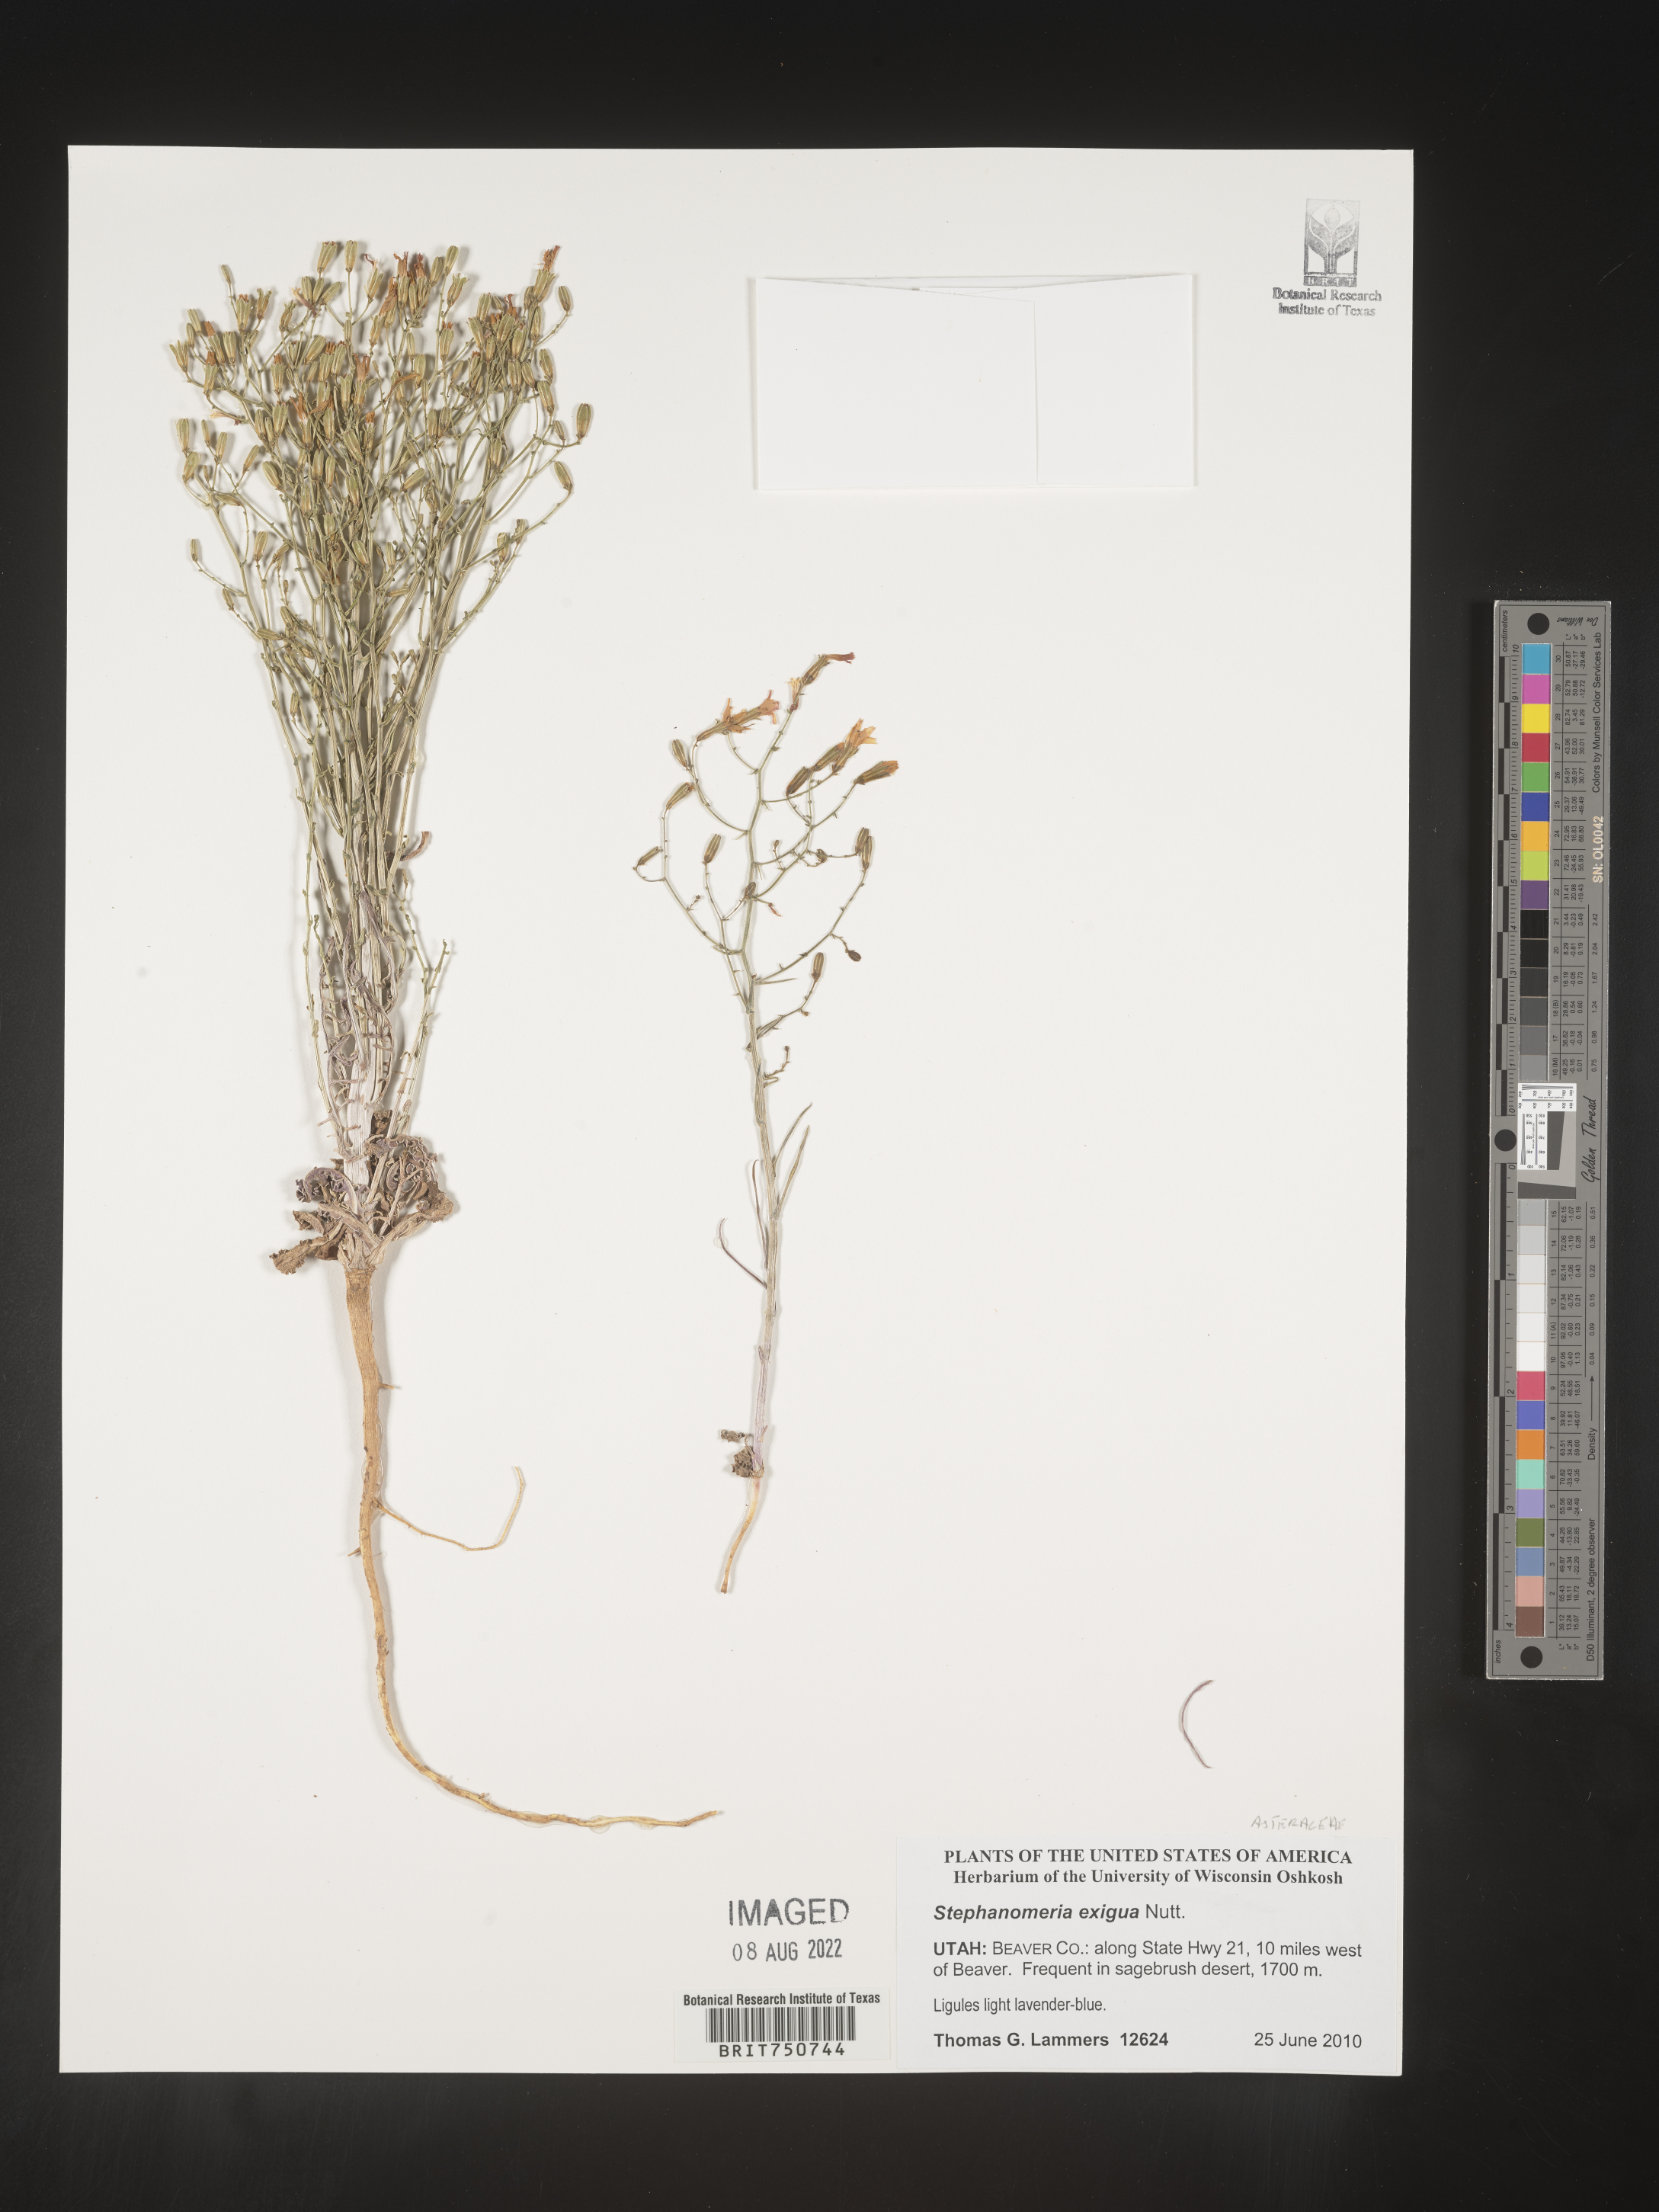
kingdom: Plantae
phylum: Tracheophyta
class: Magnoliopsida
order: Asterales
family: Asteraceae
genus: Stephanomeria
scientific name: Stephanomeria exigua
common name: Small wirelettuce
